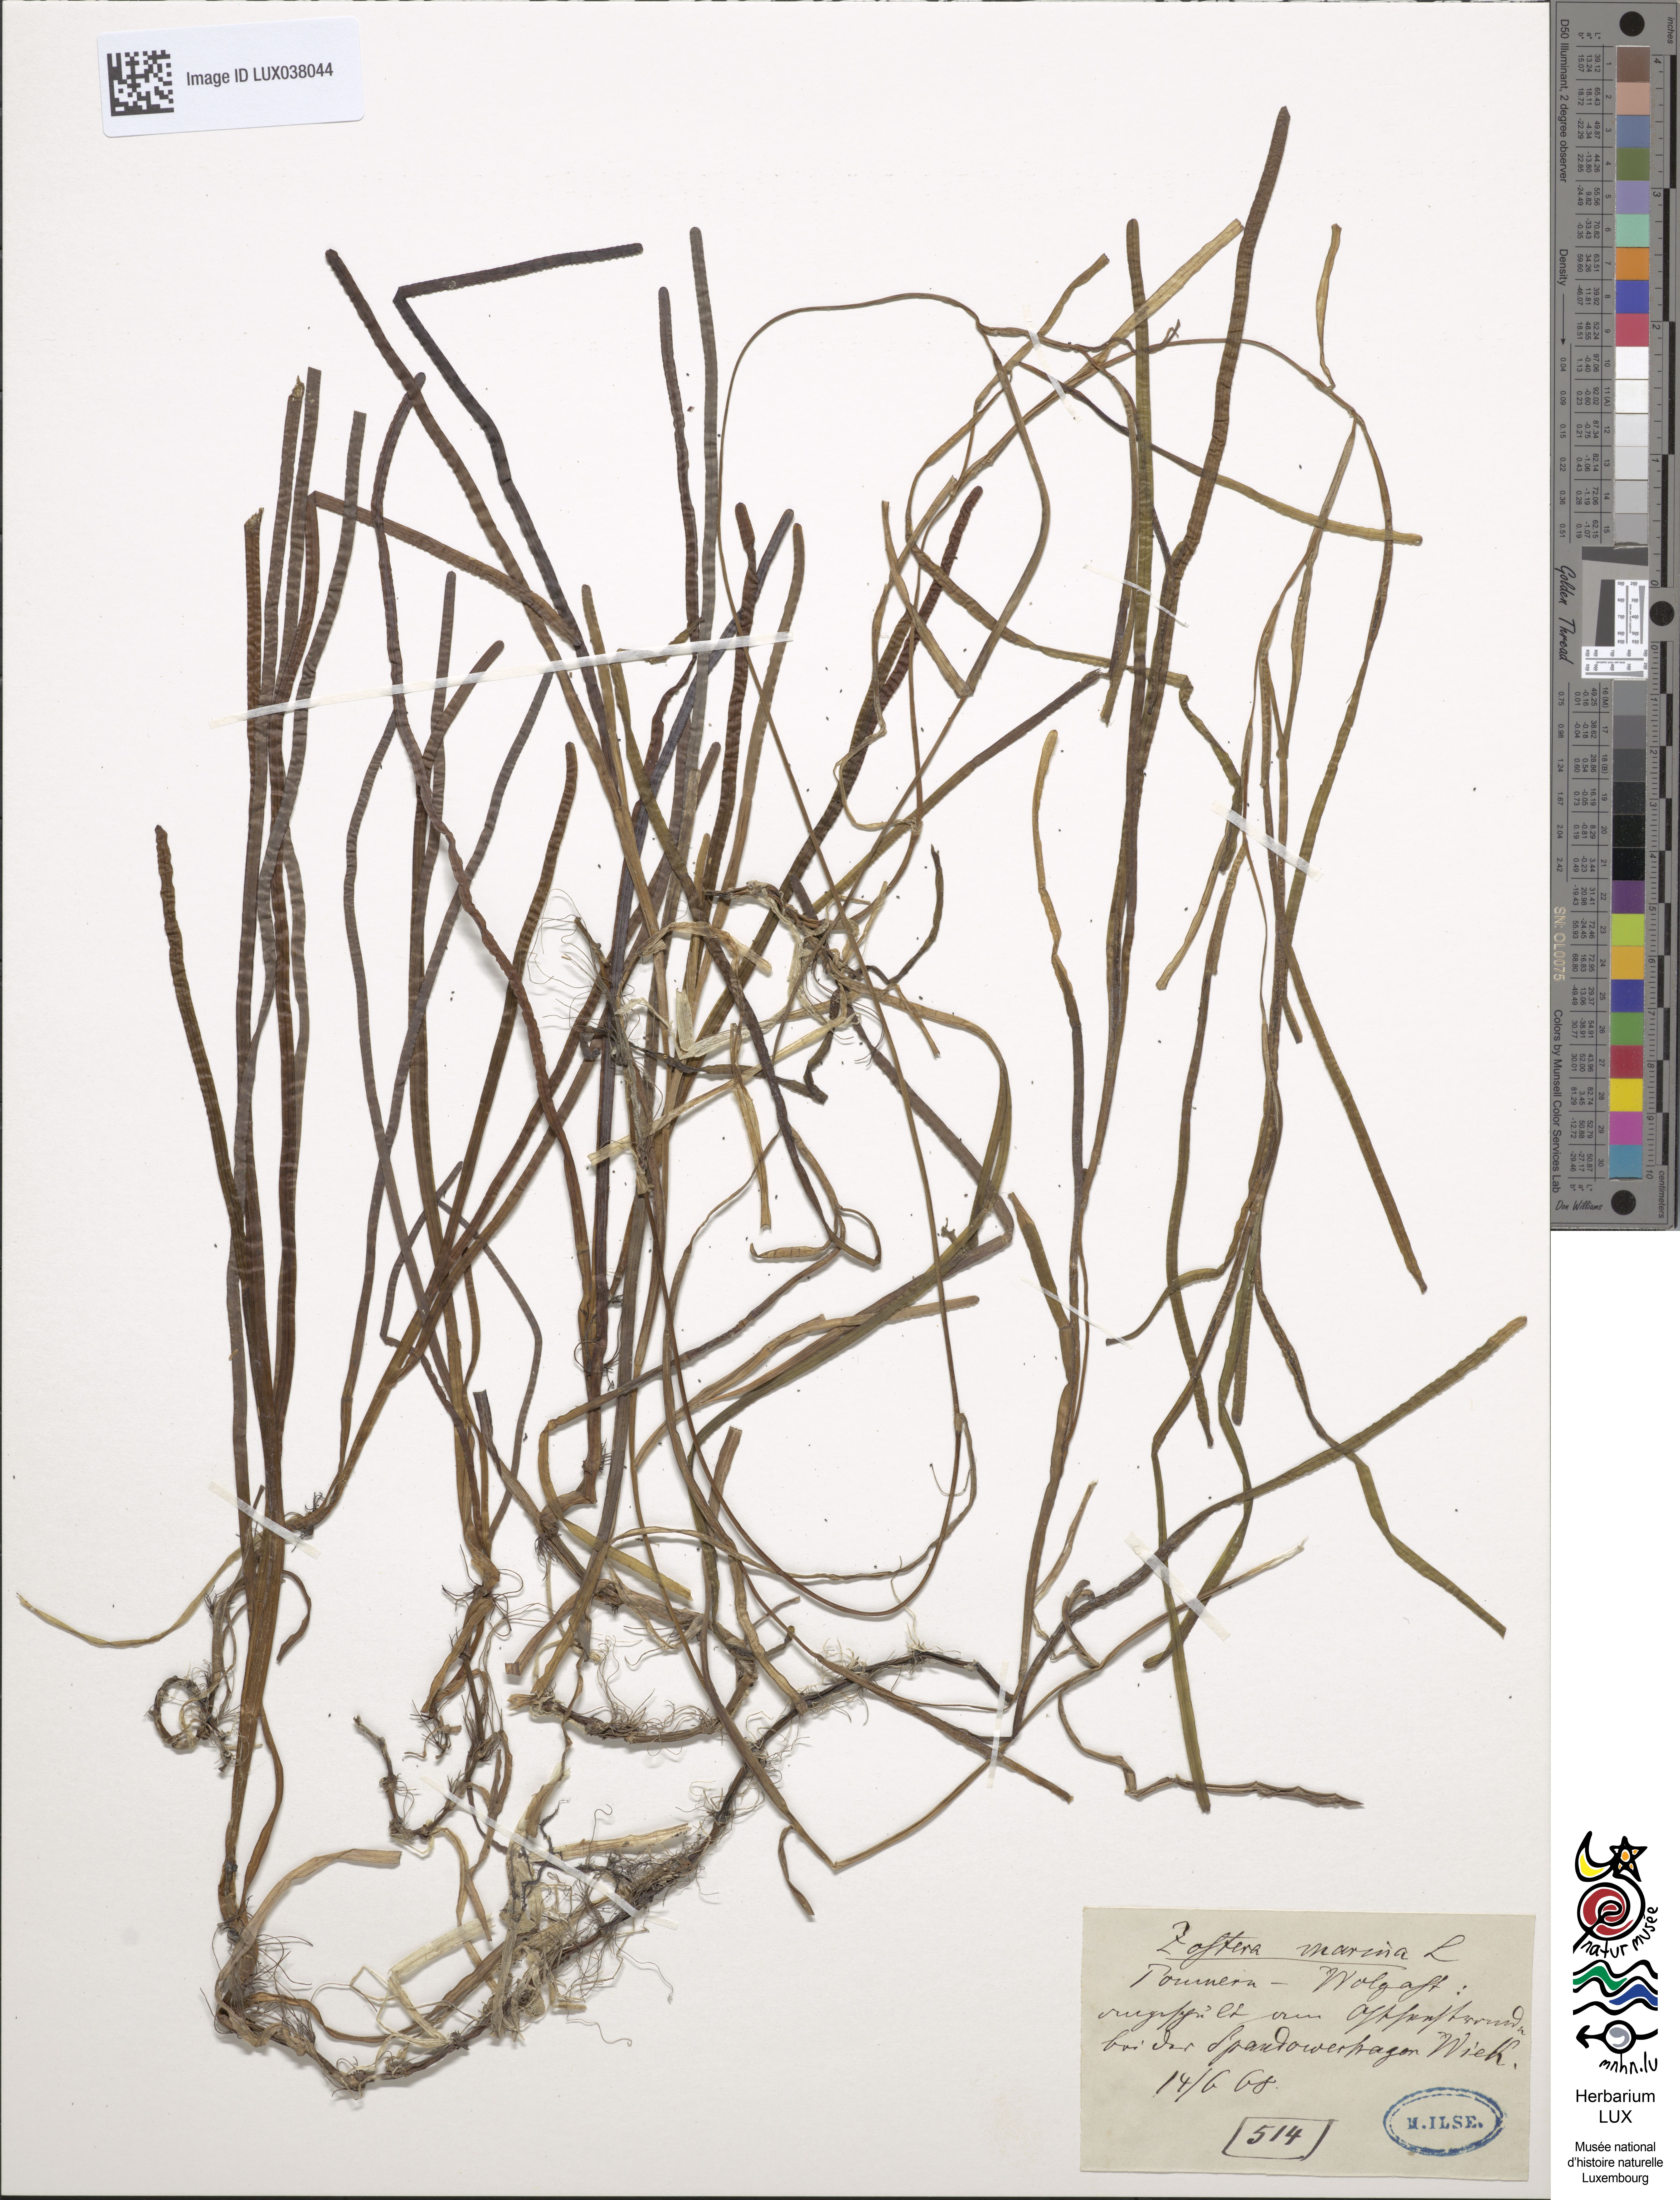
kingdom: Plantae
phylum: Tracheophyta
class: Liliopsida
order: Alismatales
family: Zosteraceae
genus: Zostera
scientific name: Zostera marina
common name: Eelgrass
